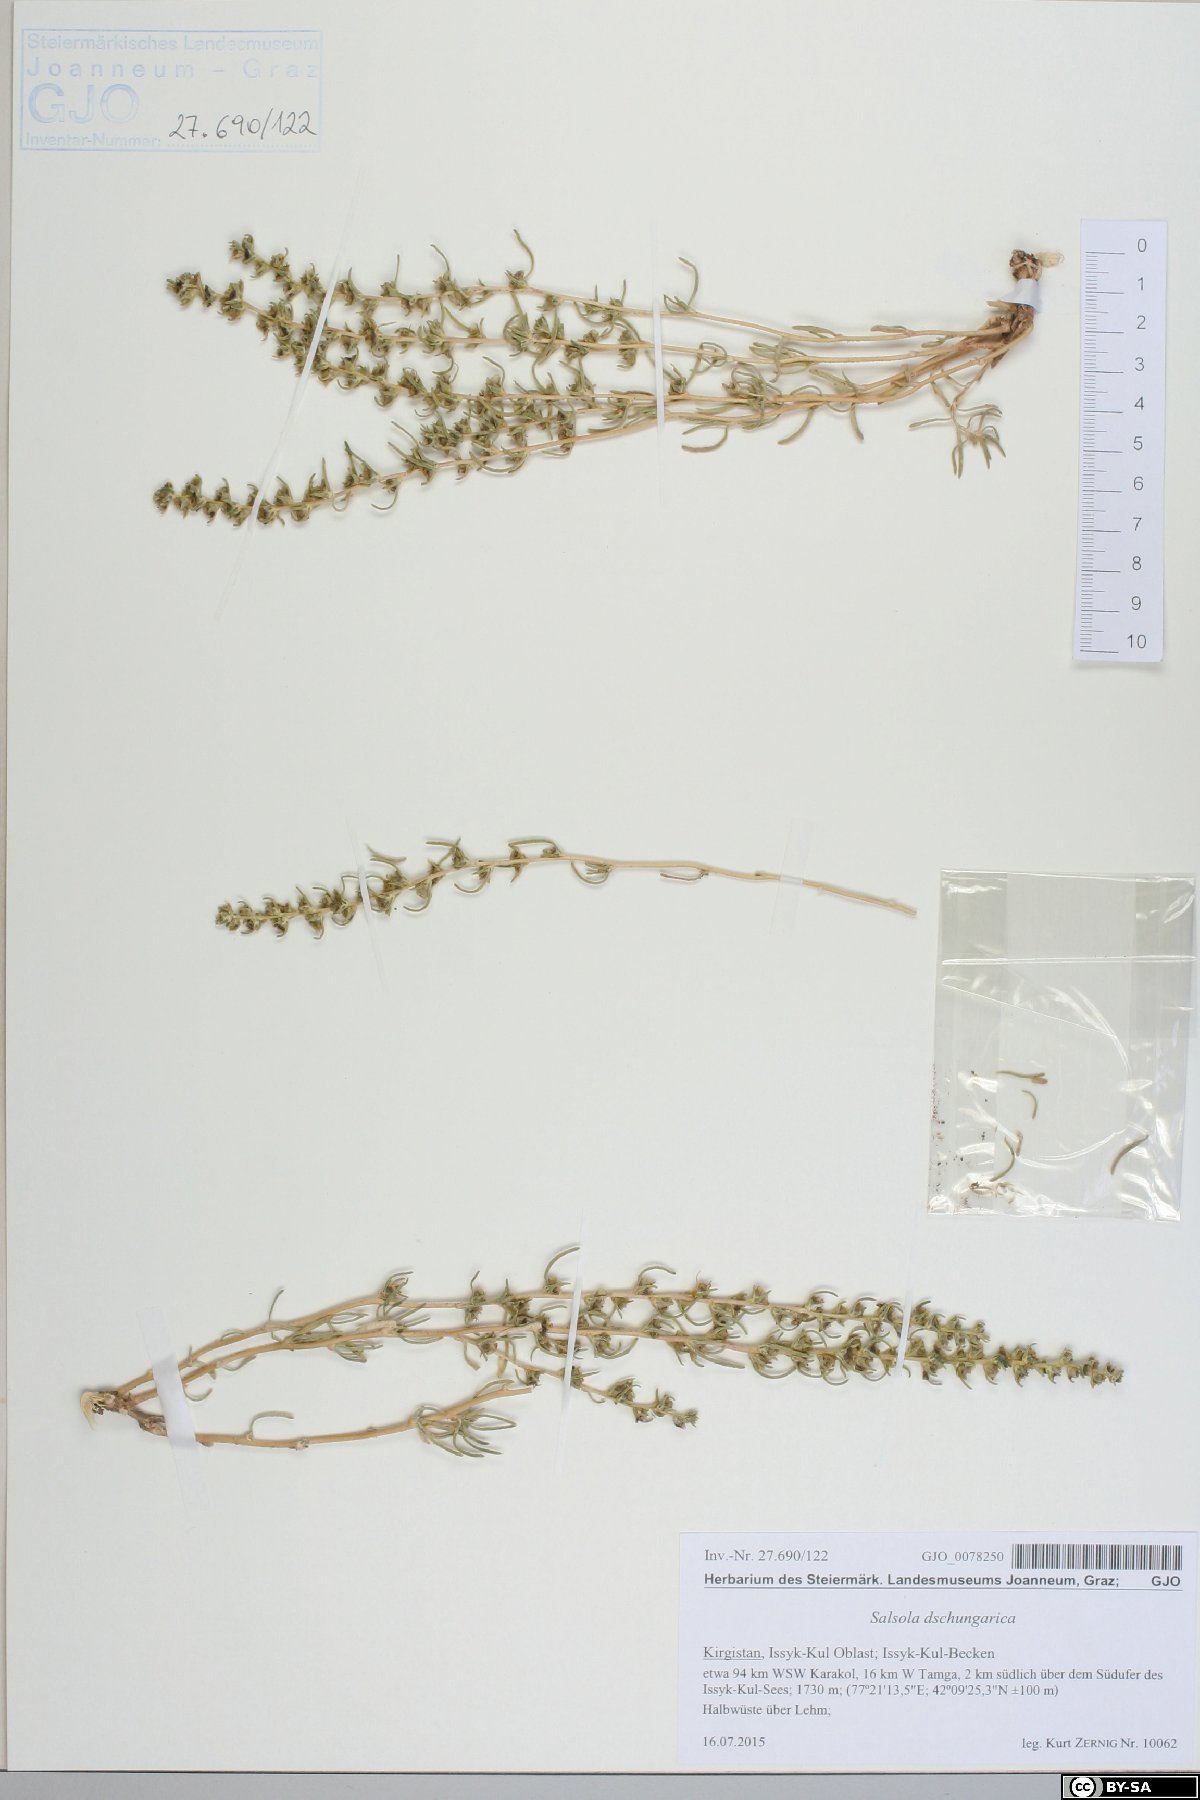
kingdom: Plantae
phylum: Tracheophyta
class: Magnoliopsida
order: Caryophyllales
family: Amaranthaceae
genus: Salsola
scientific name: Salsola dshungarica
